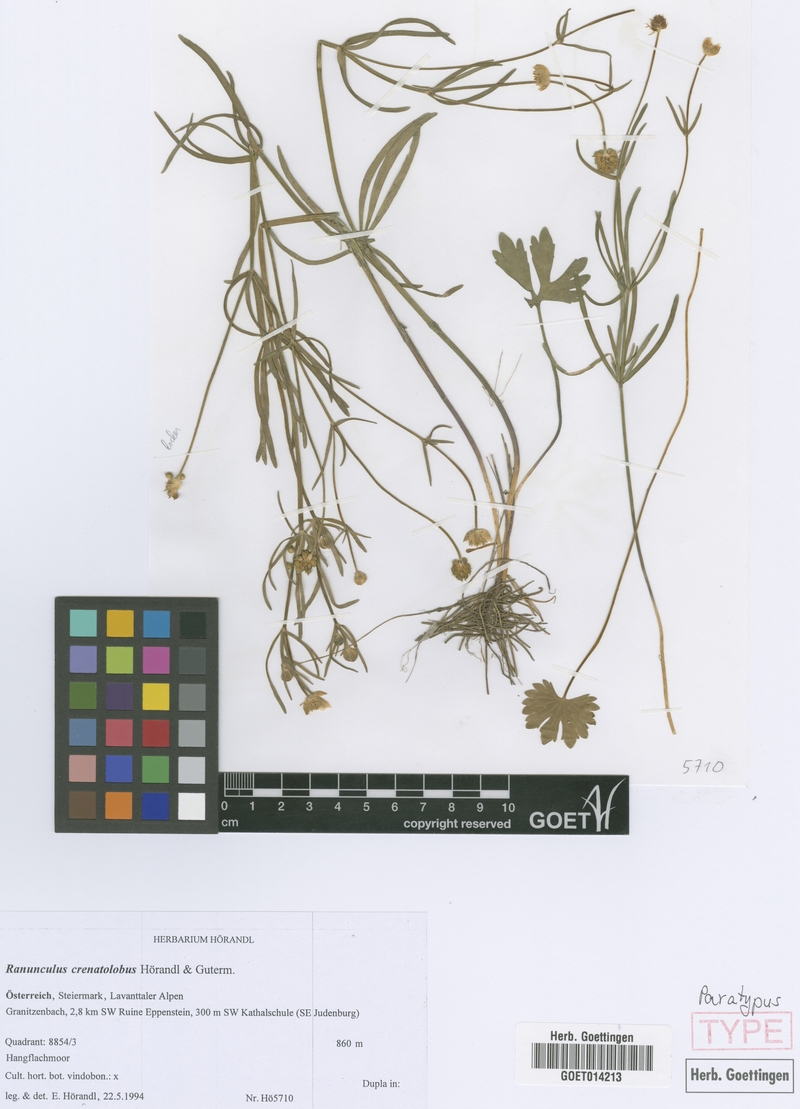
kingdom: Plantae
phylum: Tracheophyta
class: Magnoliopsida
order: Ranunculales
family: Ranunculaceae
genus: Ranunculus
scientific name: Ranunculus crenatolobus
